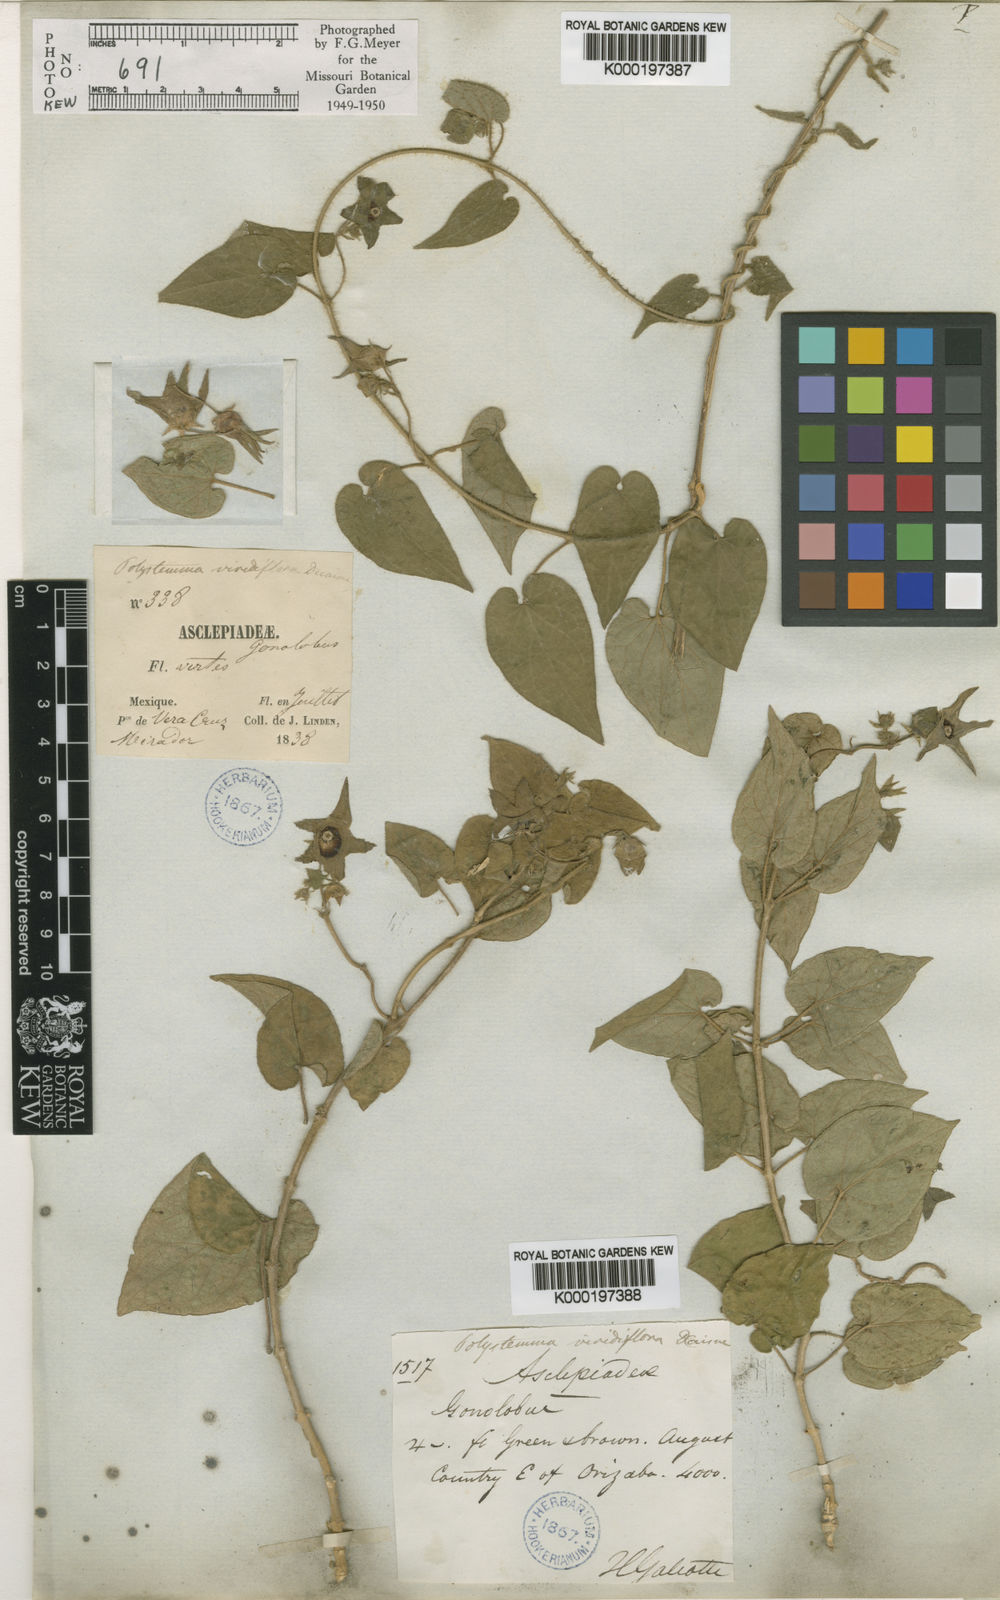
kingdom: Plantae
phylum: Tracheophyta
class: Magnoliopsida
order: Gentianales
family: Apocynaceae
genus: Polystemma
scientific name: Polystemma scopulorum
